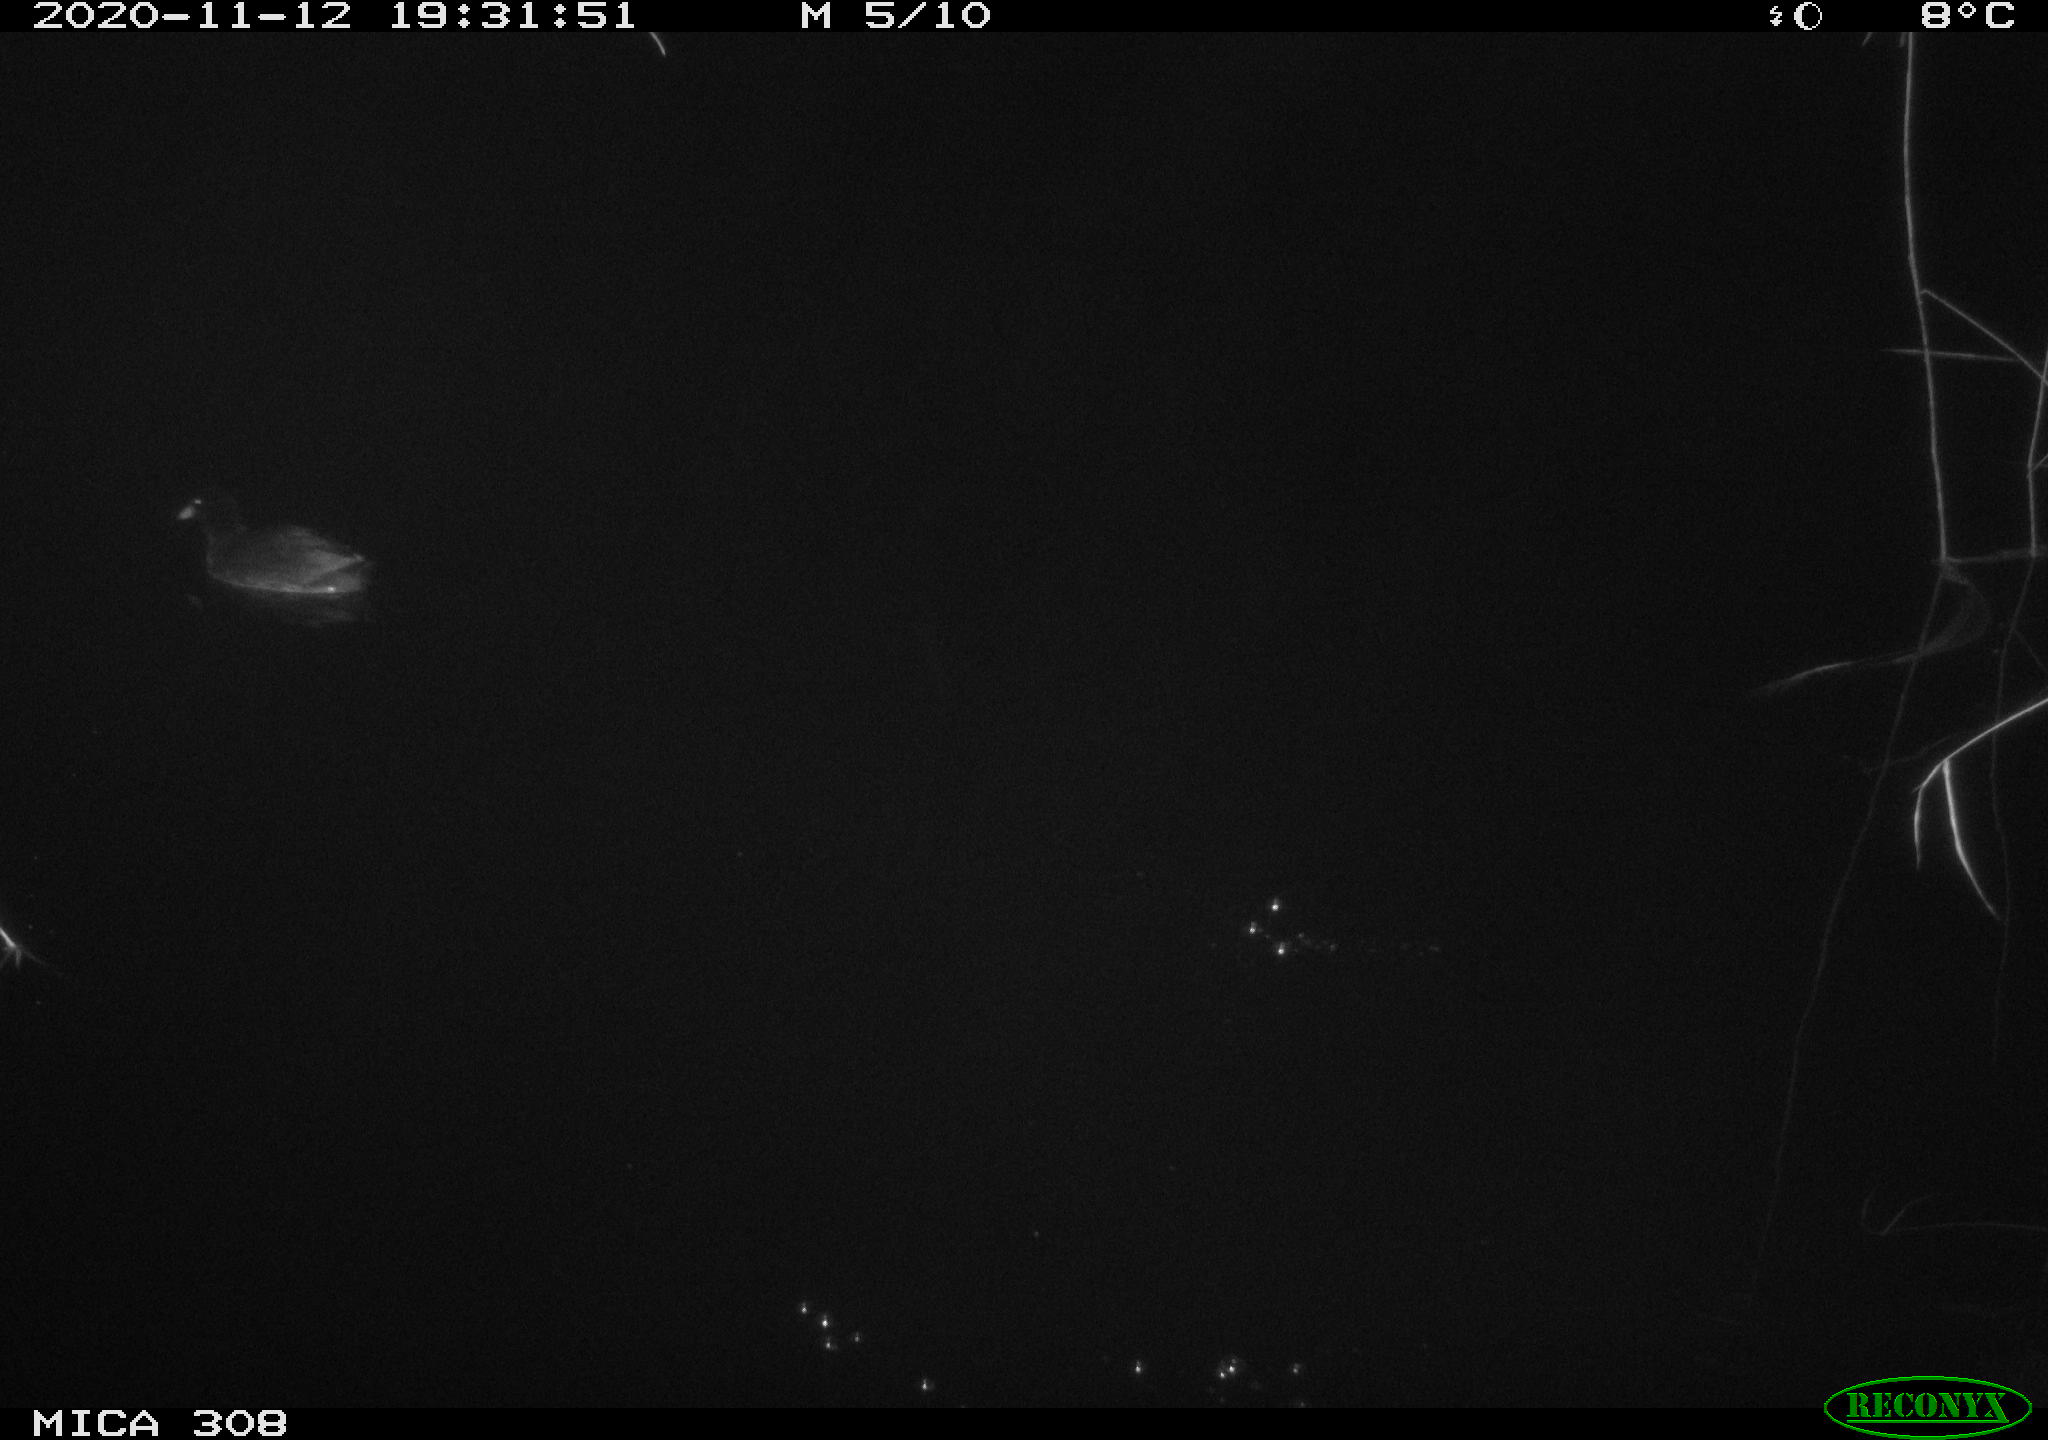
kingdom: Animalia
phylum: Chordata
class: Aves
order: Gruiformes
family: Rallidae
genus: Fulica
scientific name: Fulica atra
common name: Eurasian coot
